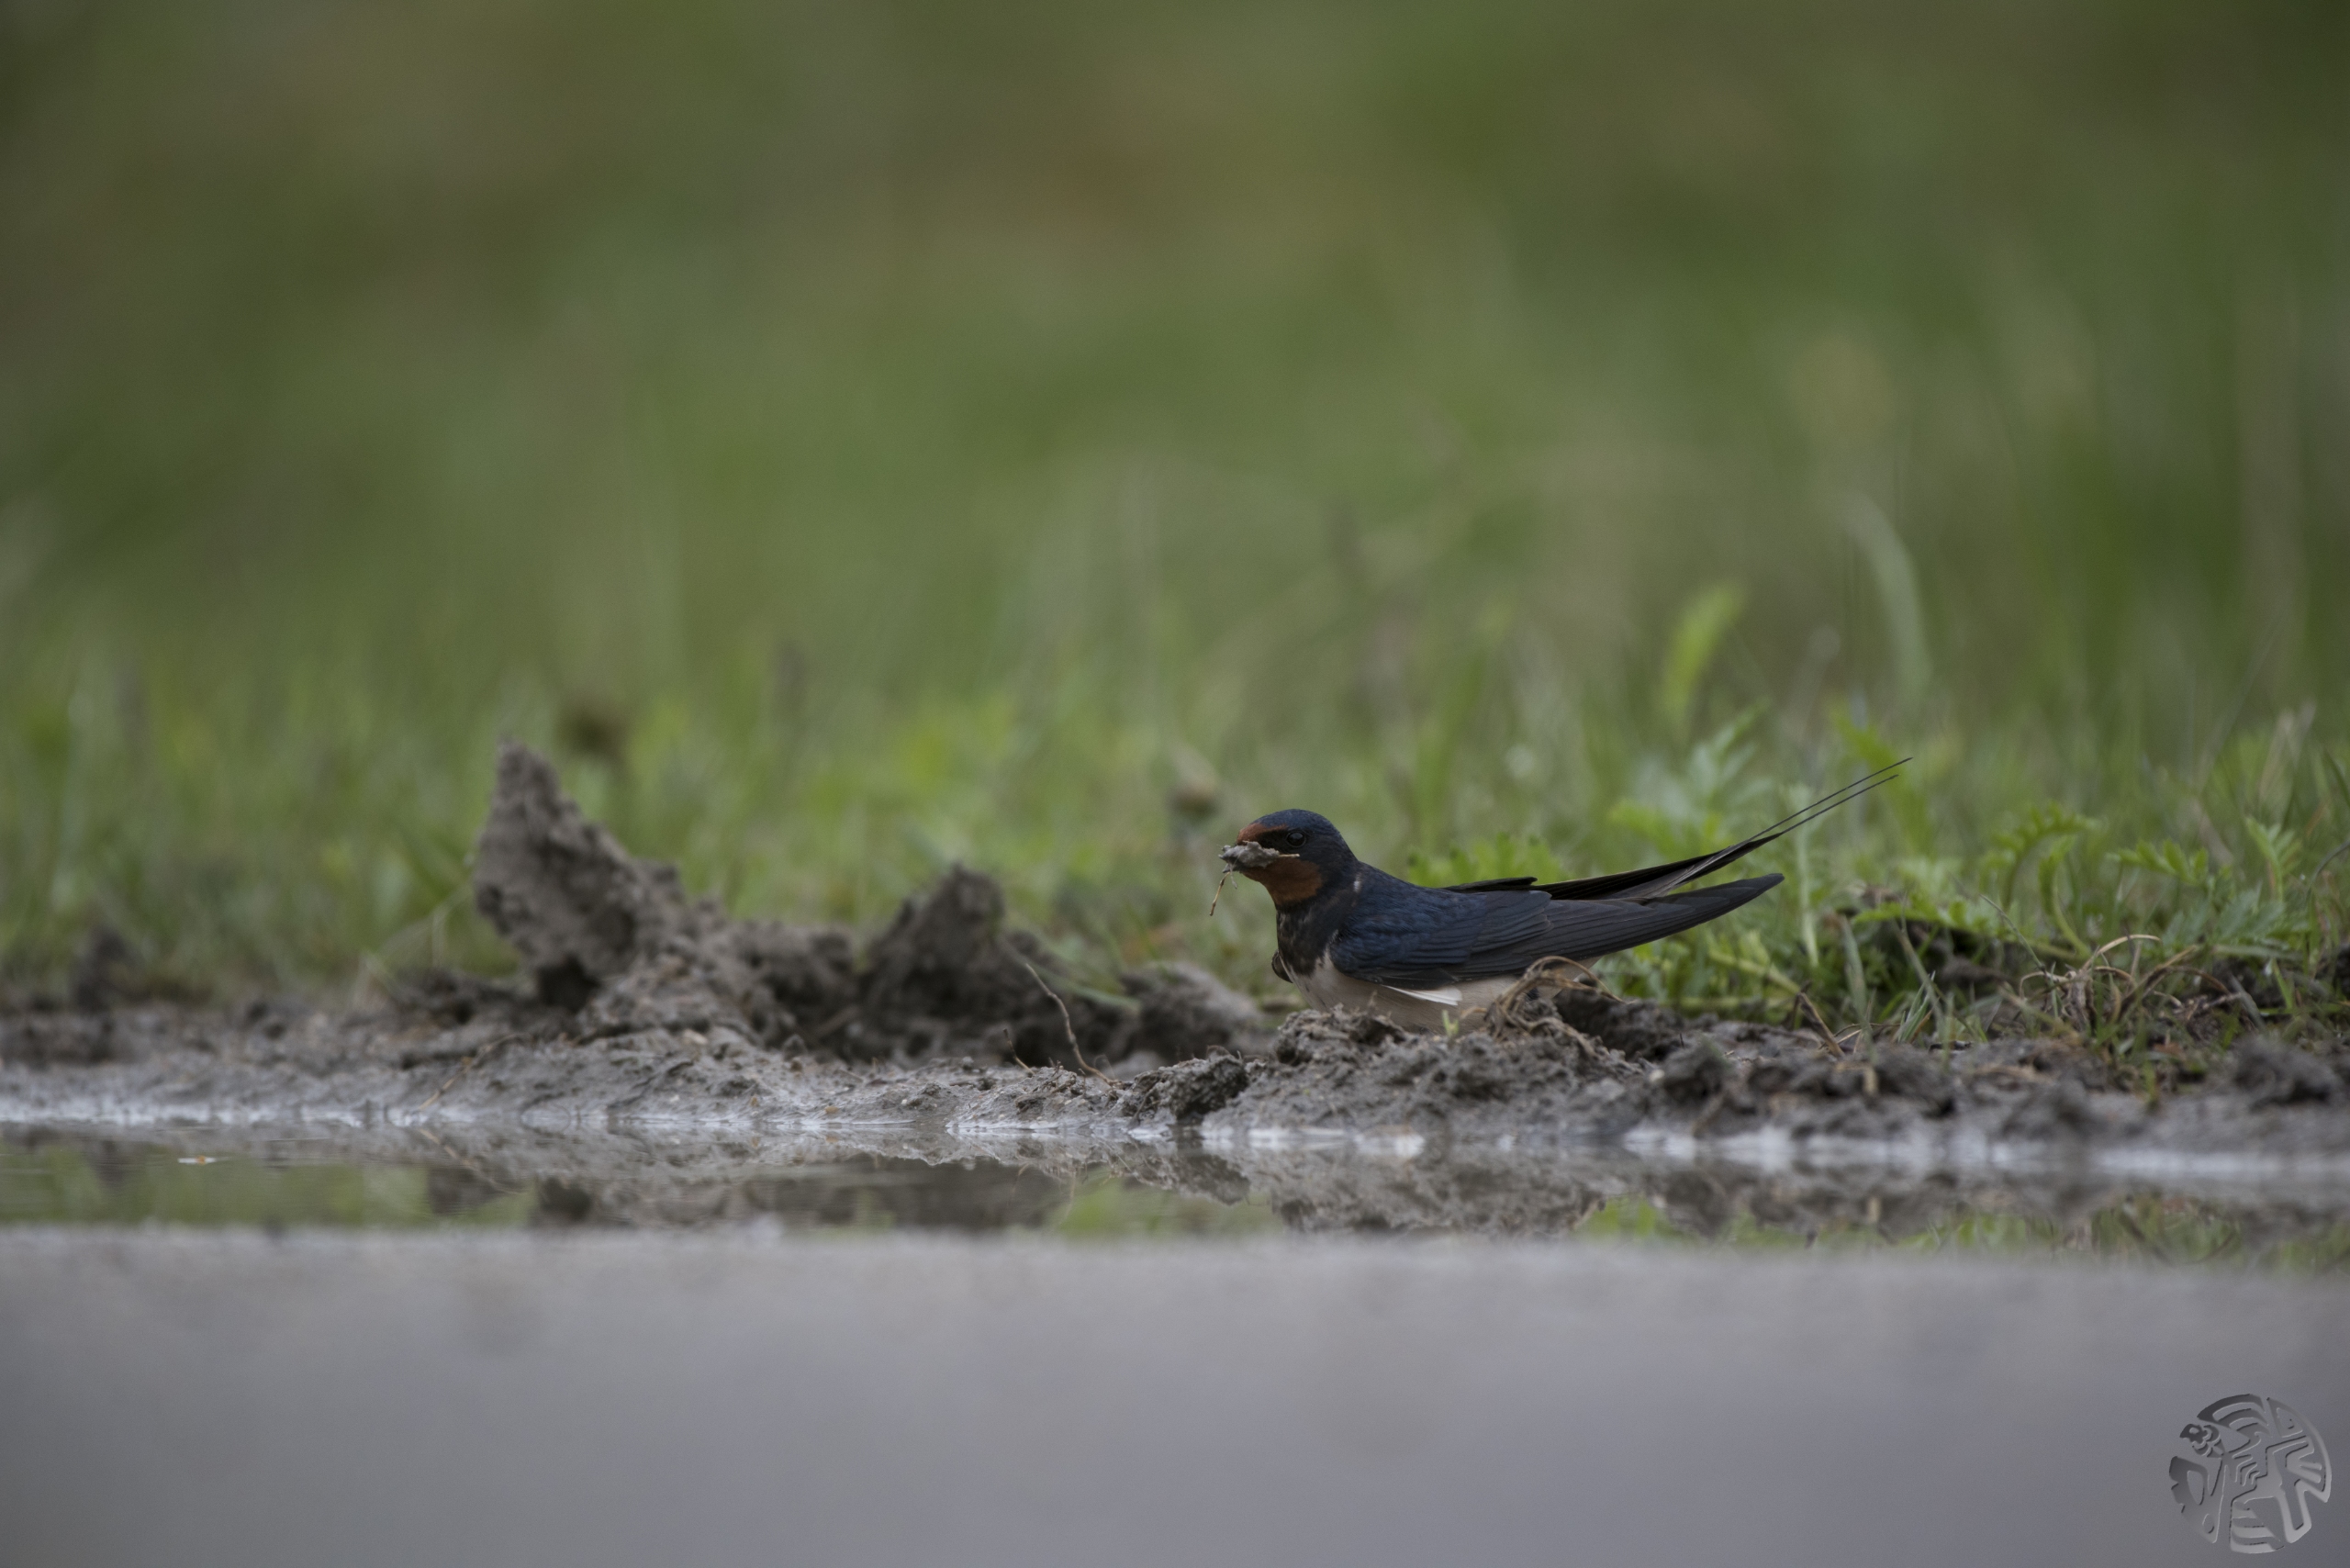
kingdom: Animalia
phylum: Chordata
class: Aves
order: Passeriformes
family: Hirundinidae
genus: Hirundo
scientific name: Hirundo rustica
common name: Landsvale
